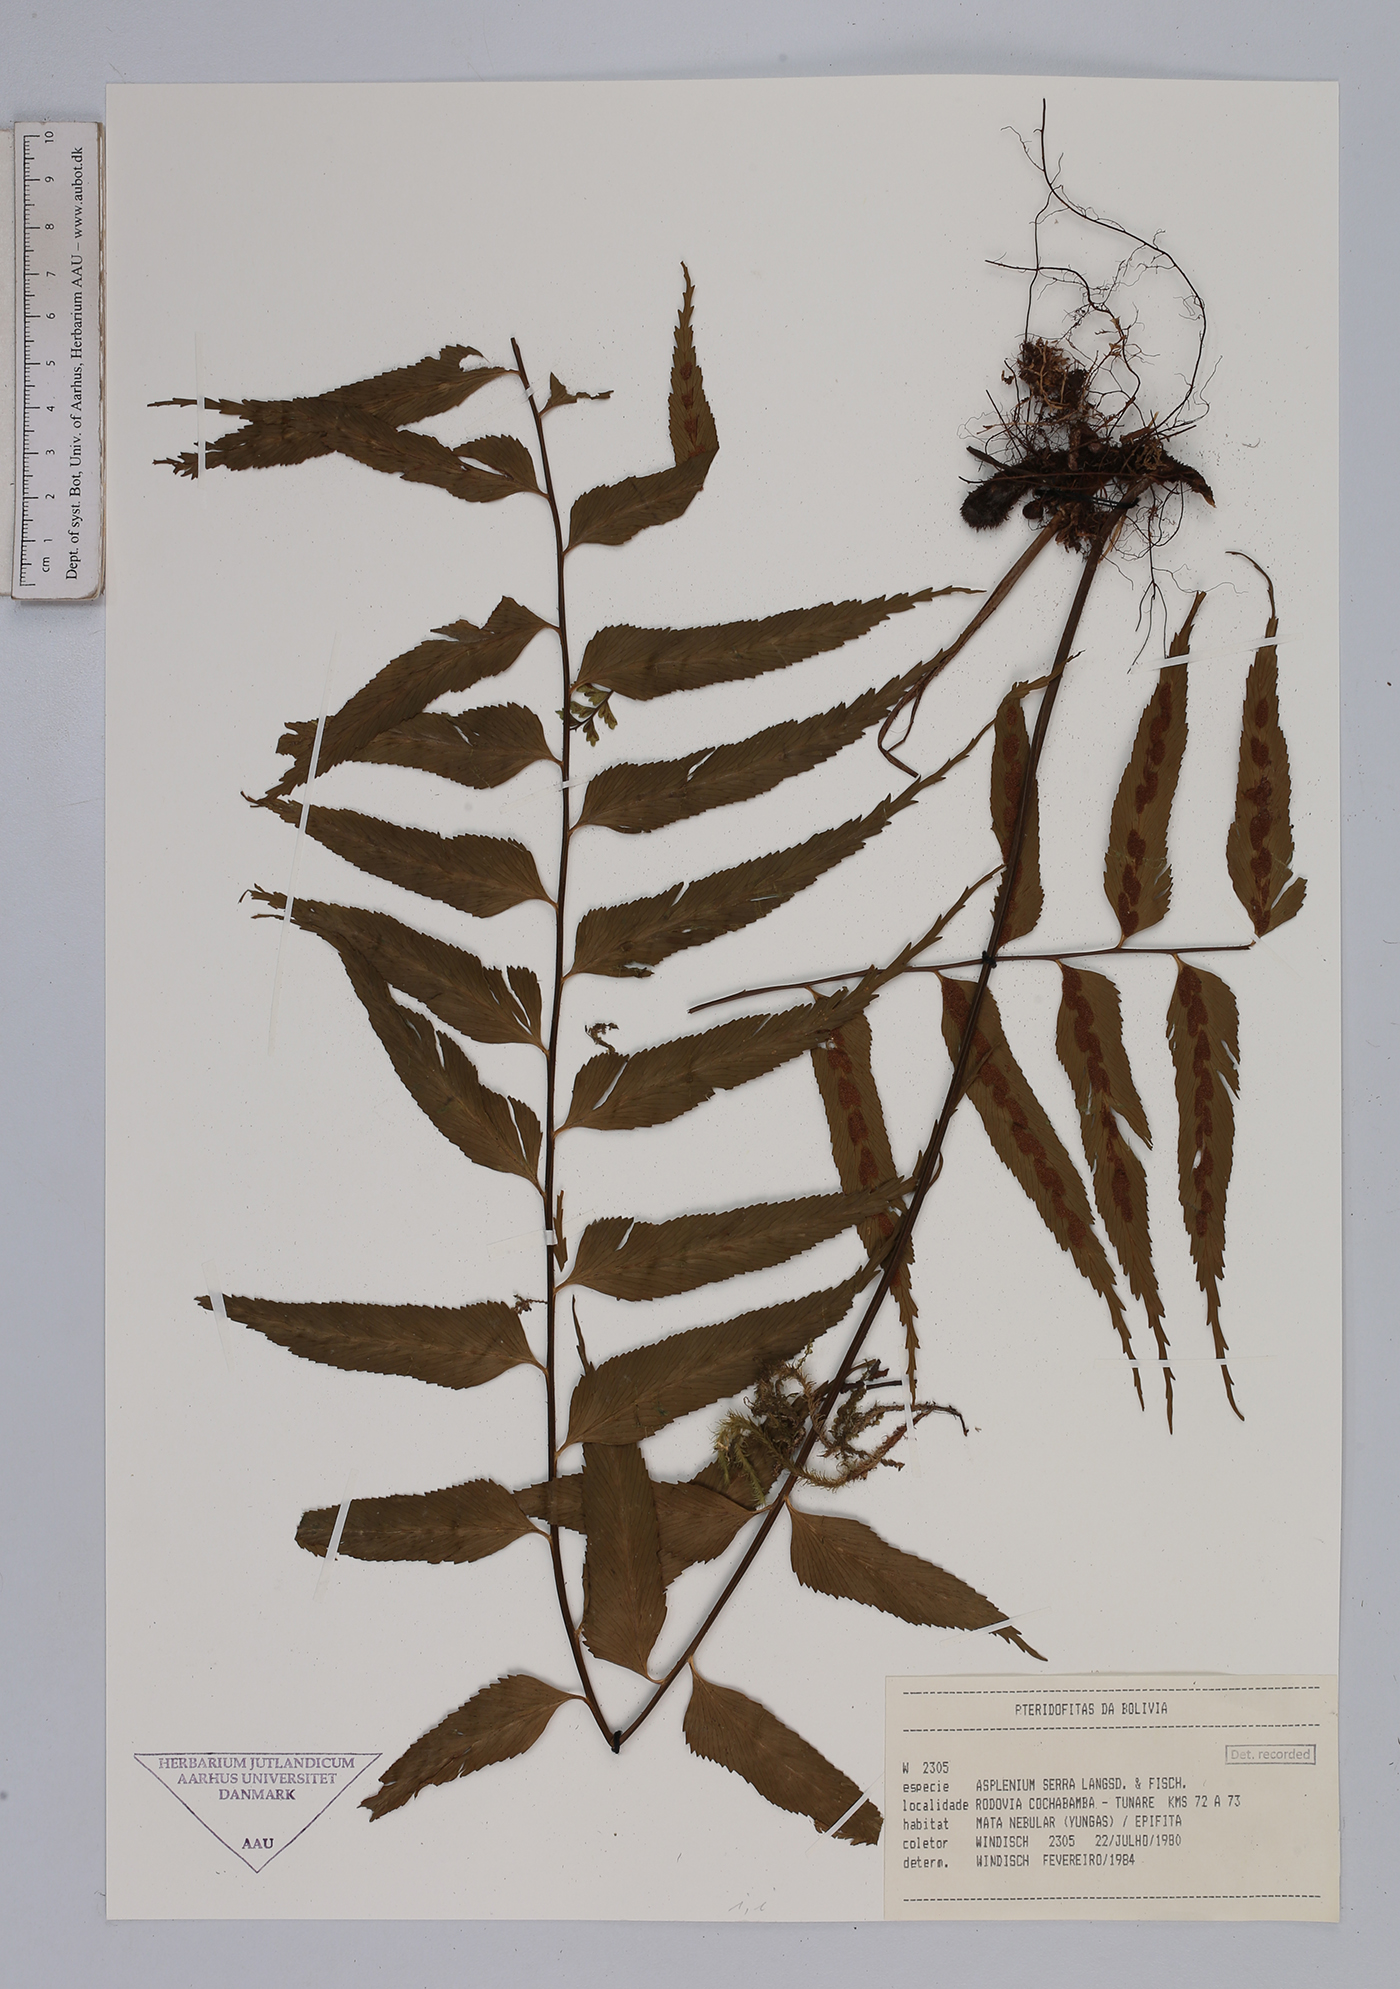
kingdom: Plantae
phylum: Tracheophyta
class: Polypodiopsida
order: Polypodiales
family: Aspleniaceae
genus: Asplenium
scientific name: Asplenium serra
